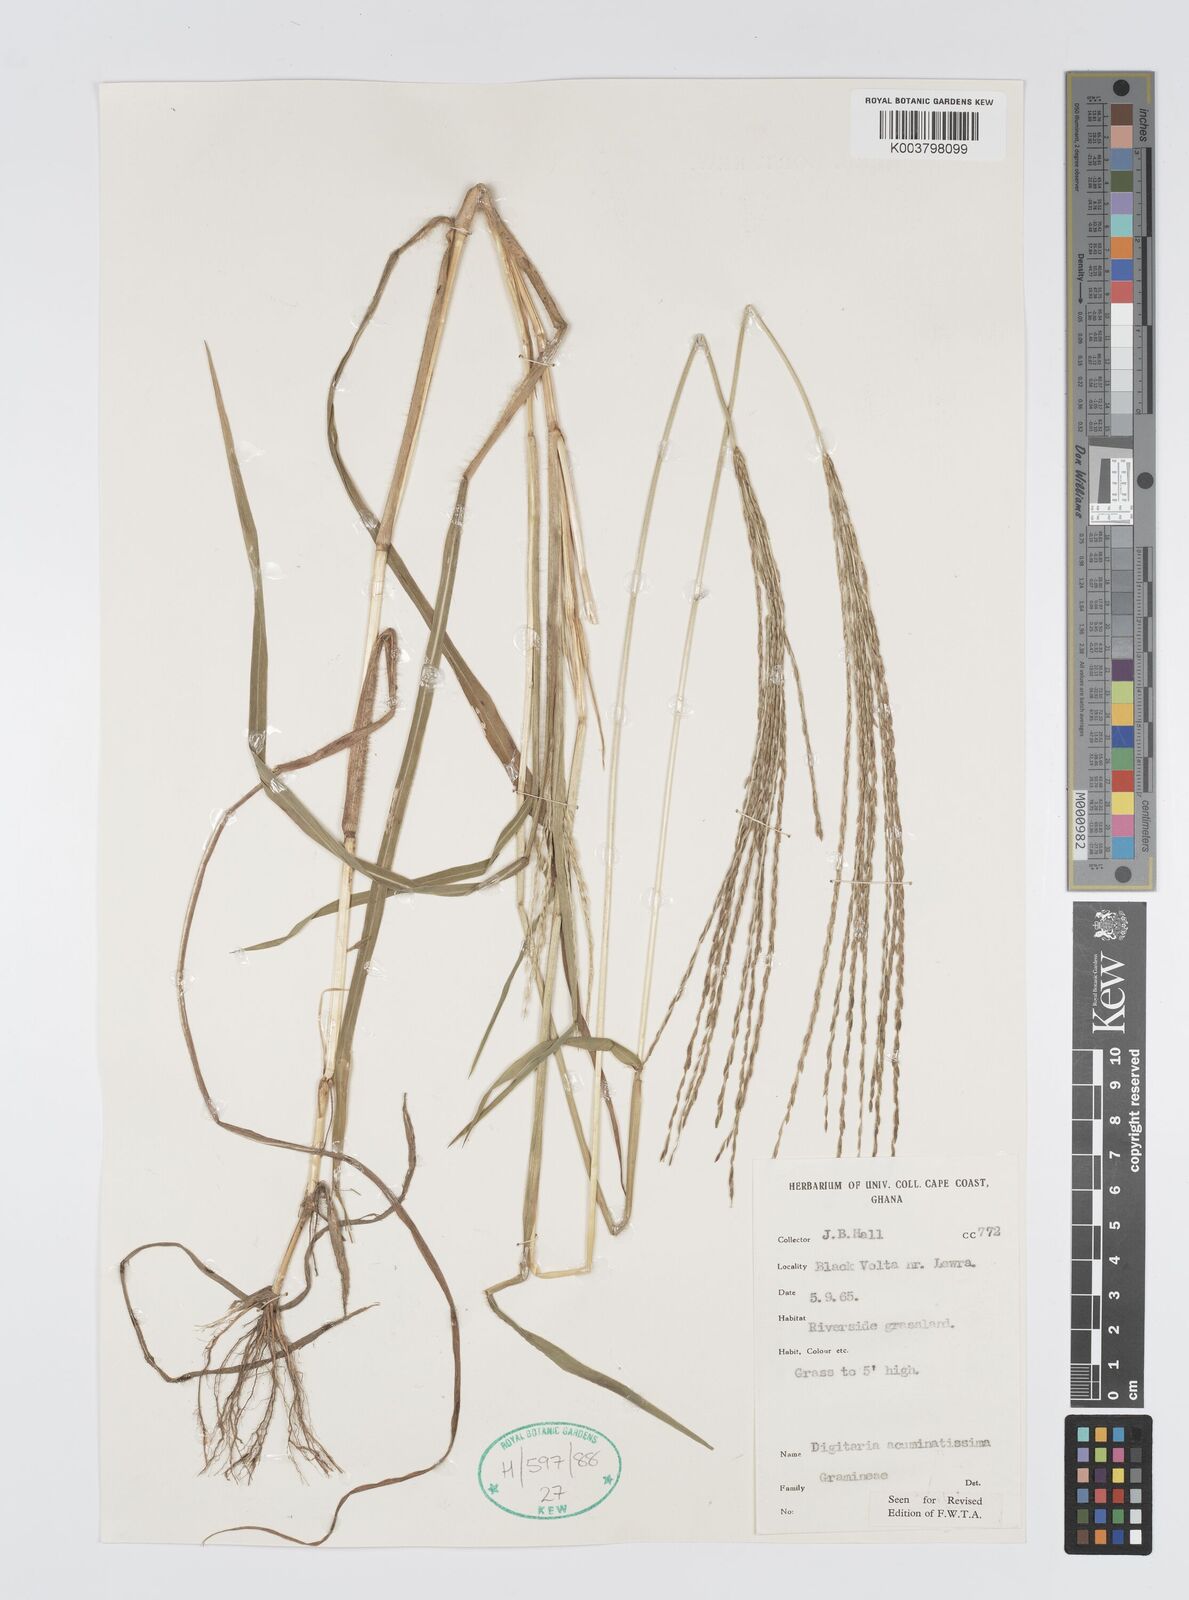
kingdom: Plantae
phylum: Tracheophyta
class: Liliopsida
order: Poales
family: Poaceae
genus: Digitaria
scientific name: Digitaria acuminatissima
